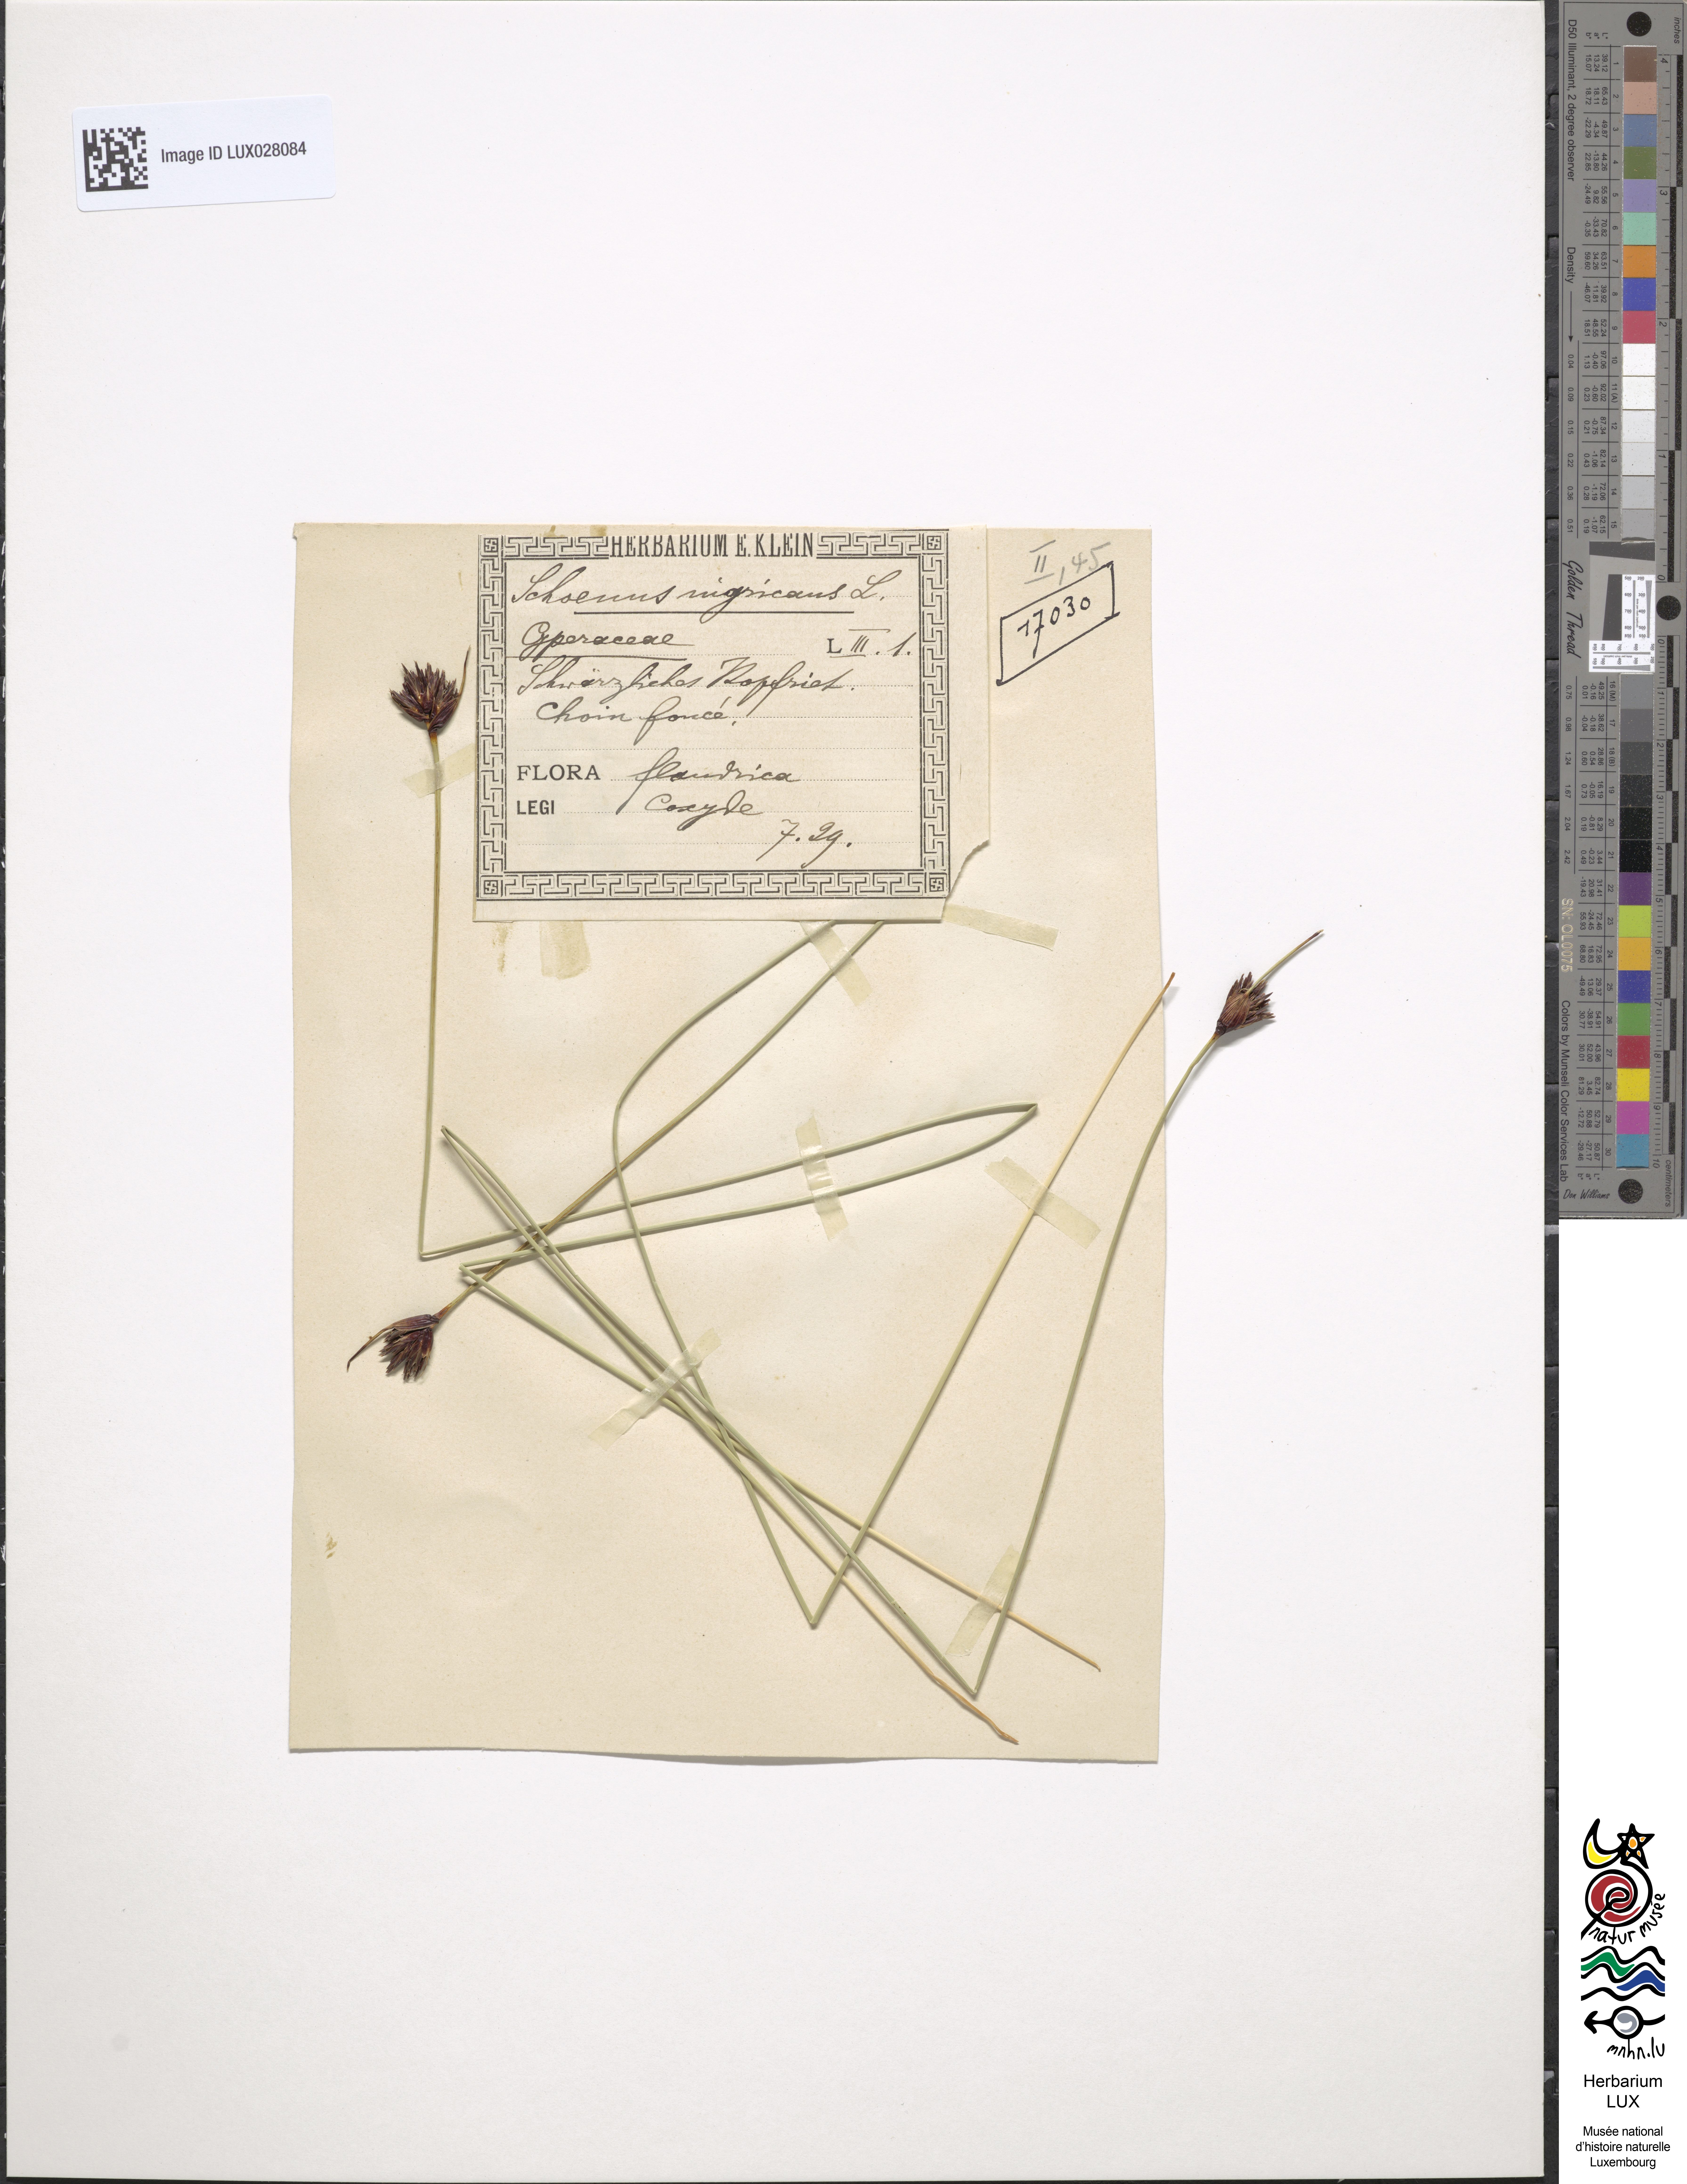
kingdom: Plantae
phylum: Tracheophyta
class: Liliopsida
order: Poales
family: Cyperaceae
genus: Schoenus
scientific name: Schoenus nigricans
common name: Black bog-rush
